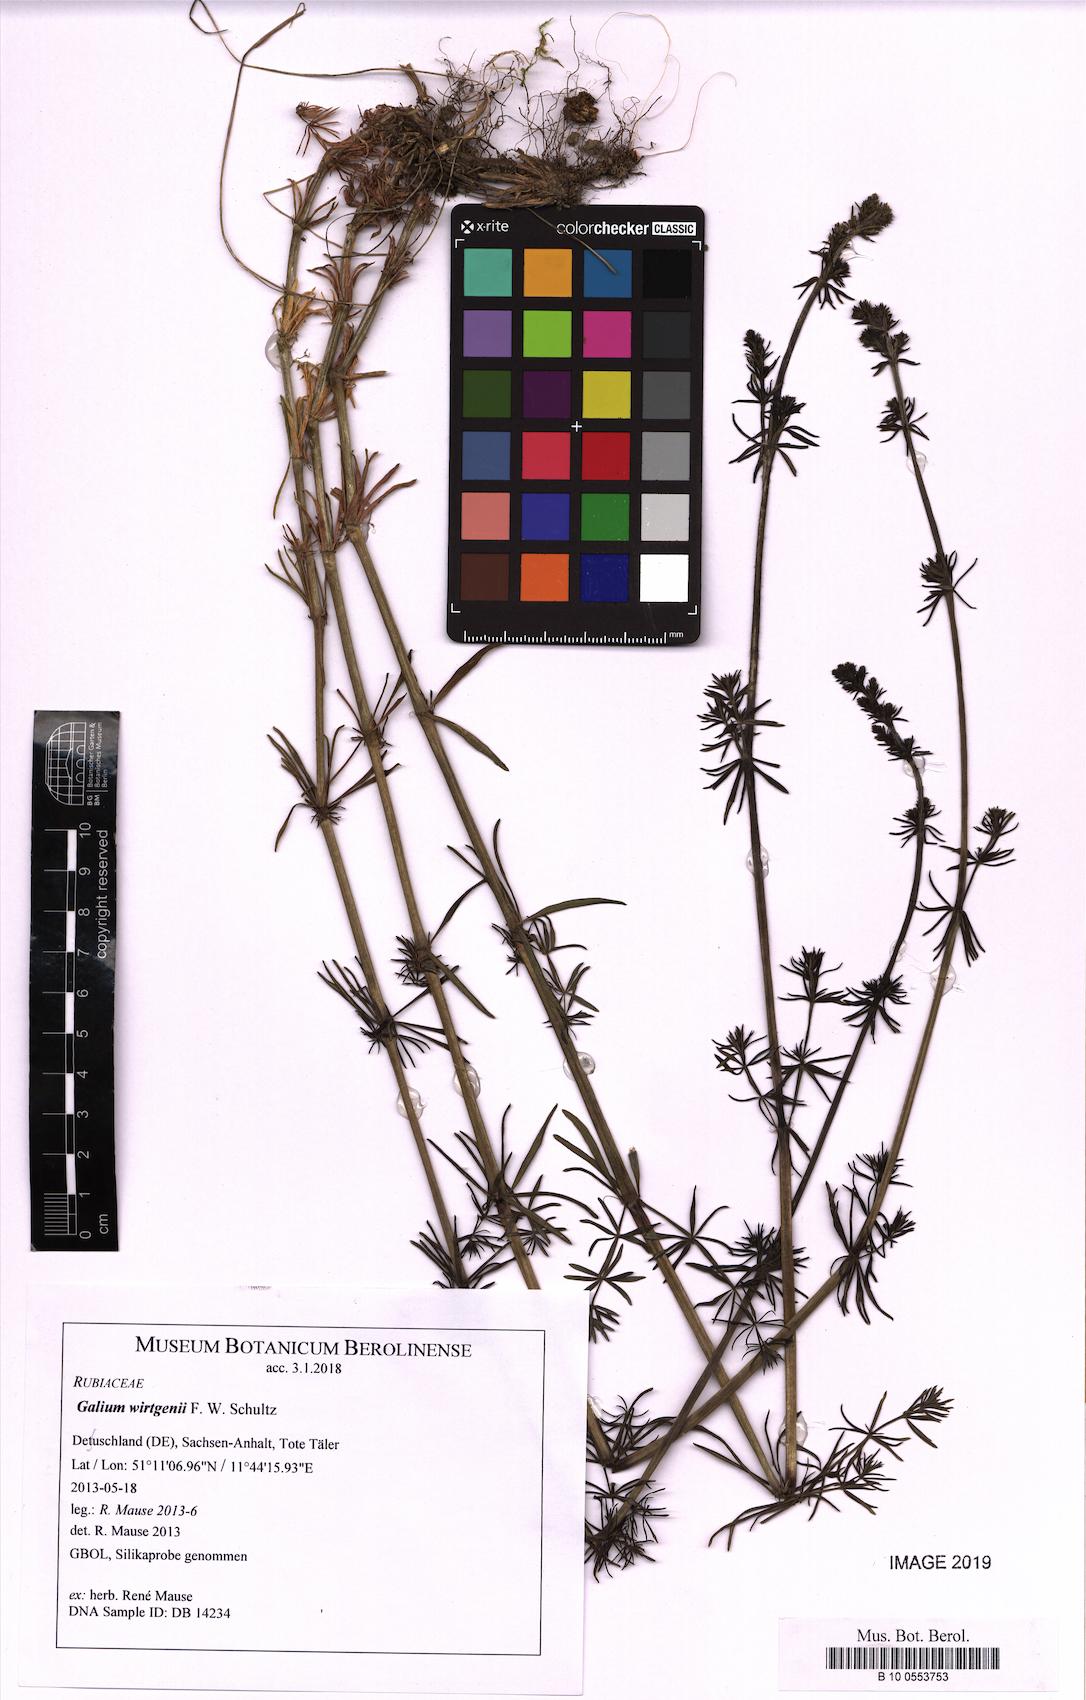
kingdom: Plantae
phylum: Tracheophyta
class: Magnoliopsida
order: Gentianales
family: Rubiaceae
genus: Galium
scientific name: Galium verum
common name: Lady's bedstraw
